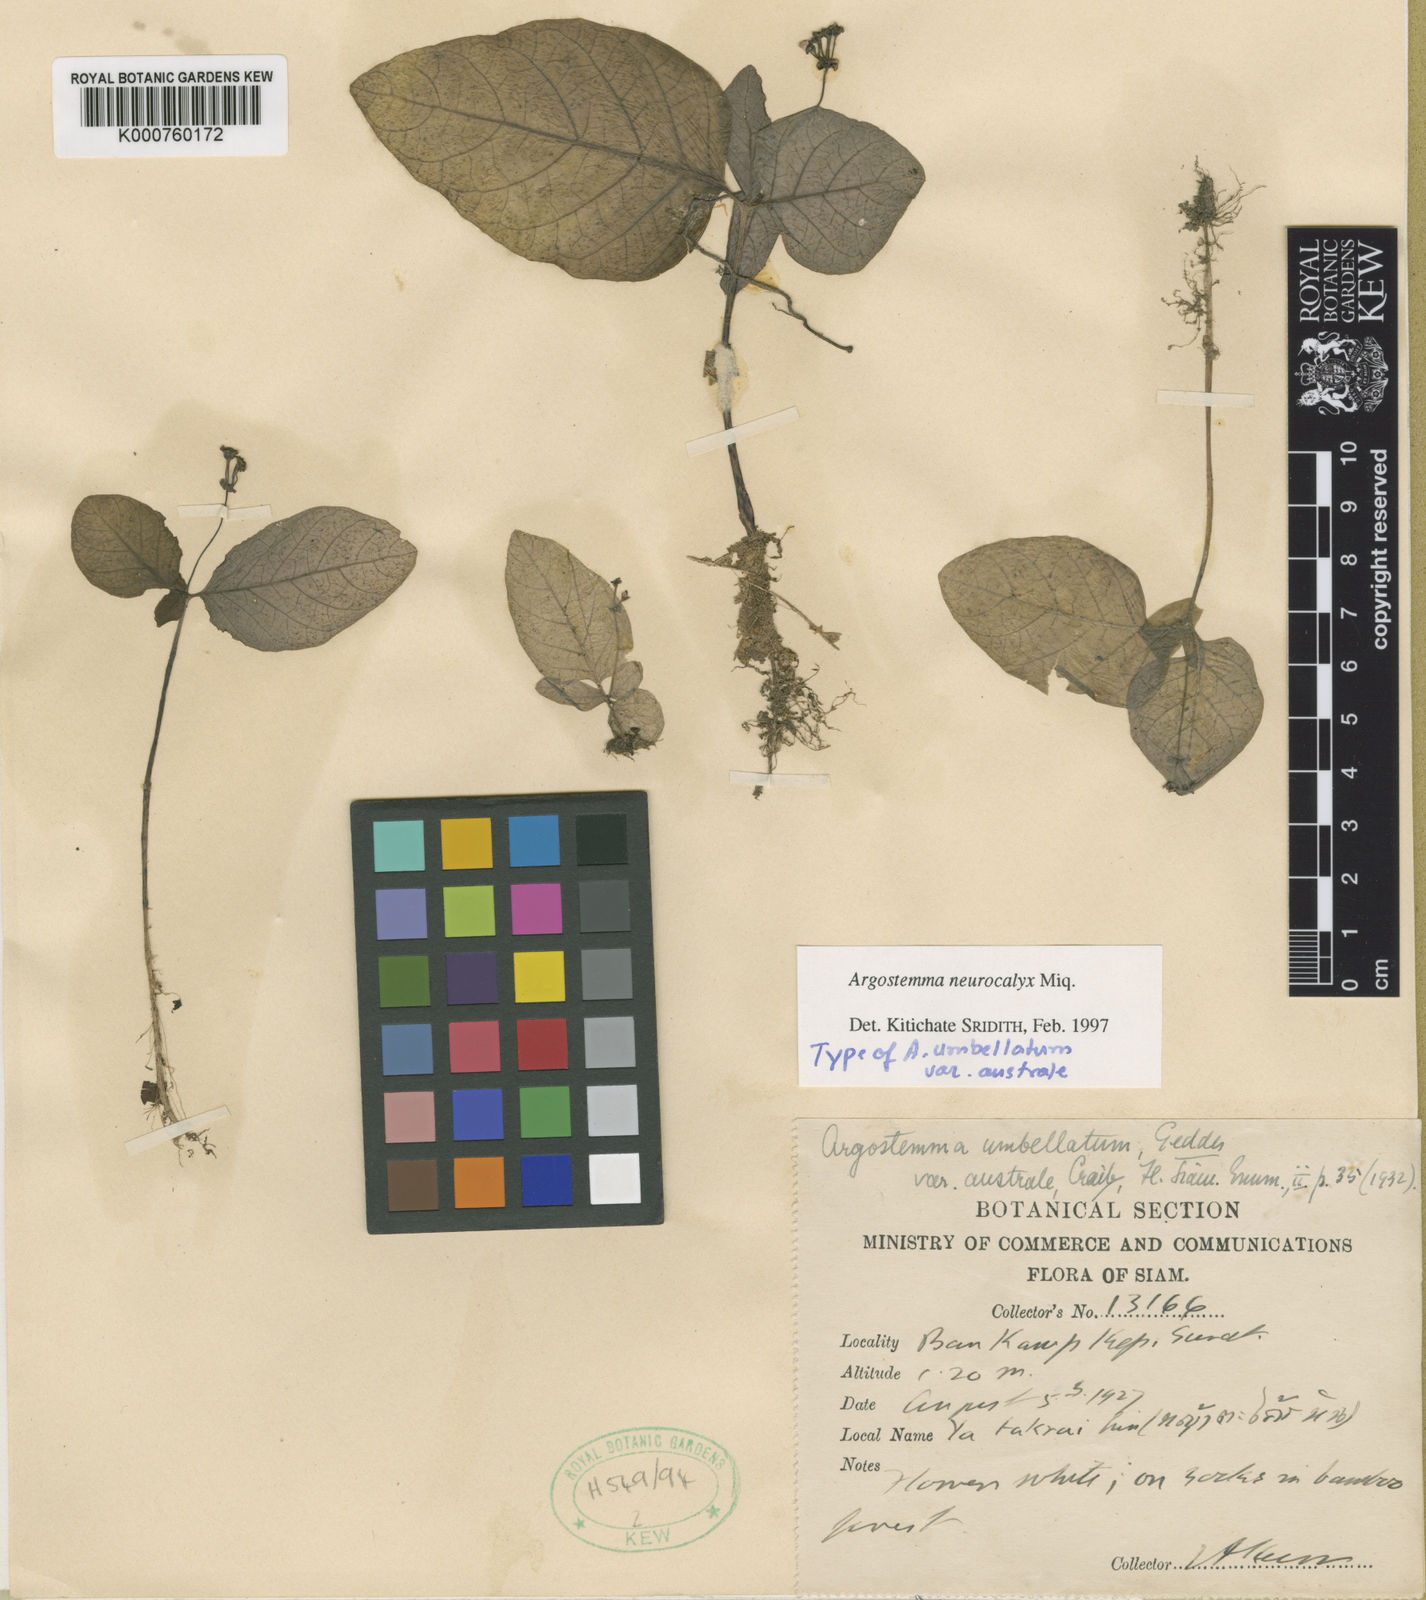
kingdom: Plantae
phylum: Tracheophyta
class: Magnoliopsida
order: Gentianales
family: Rubiaceae
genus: Argostemma
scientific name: Argostemma neurocalyx
